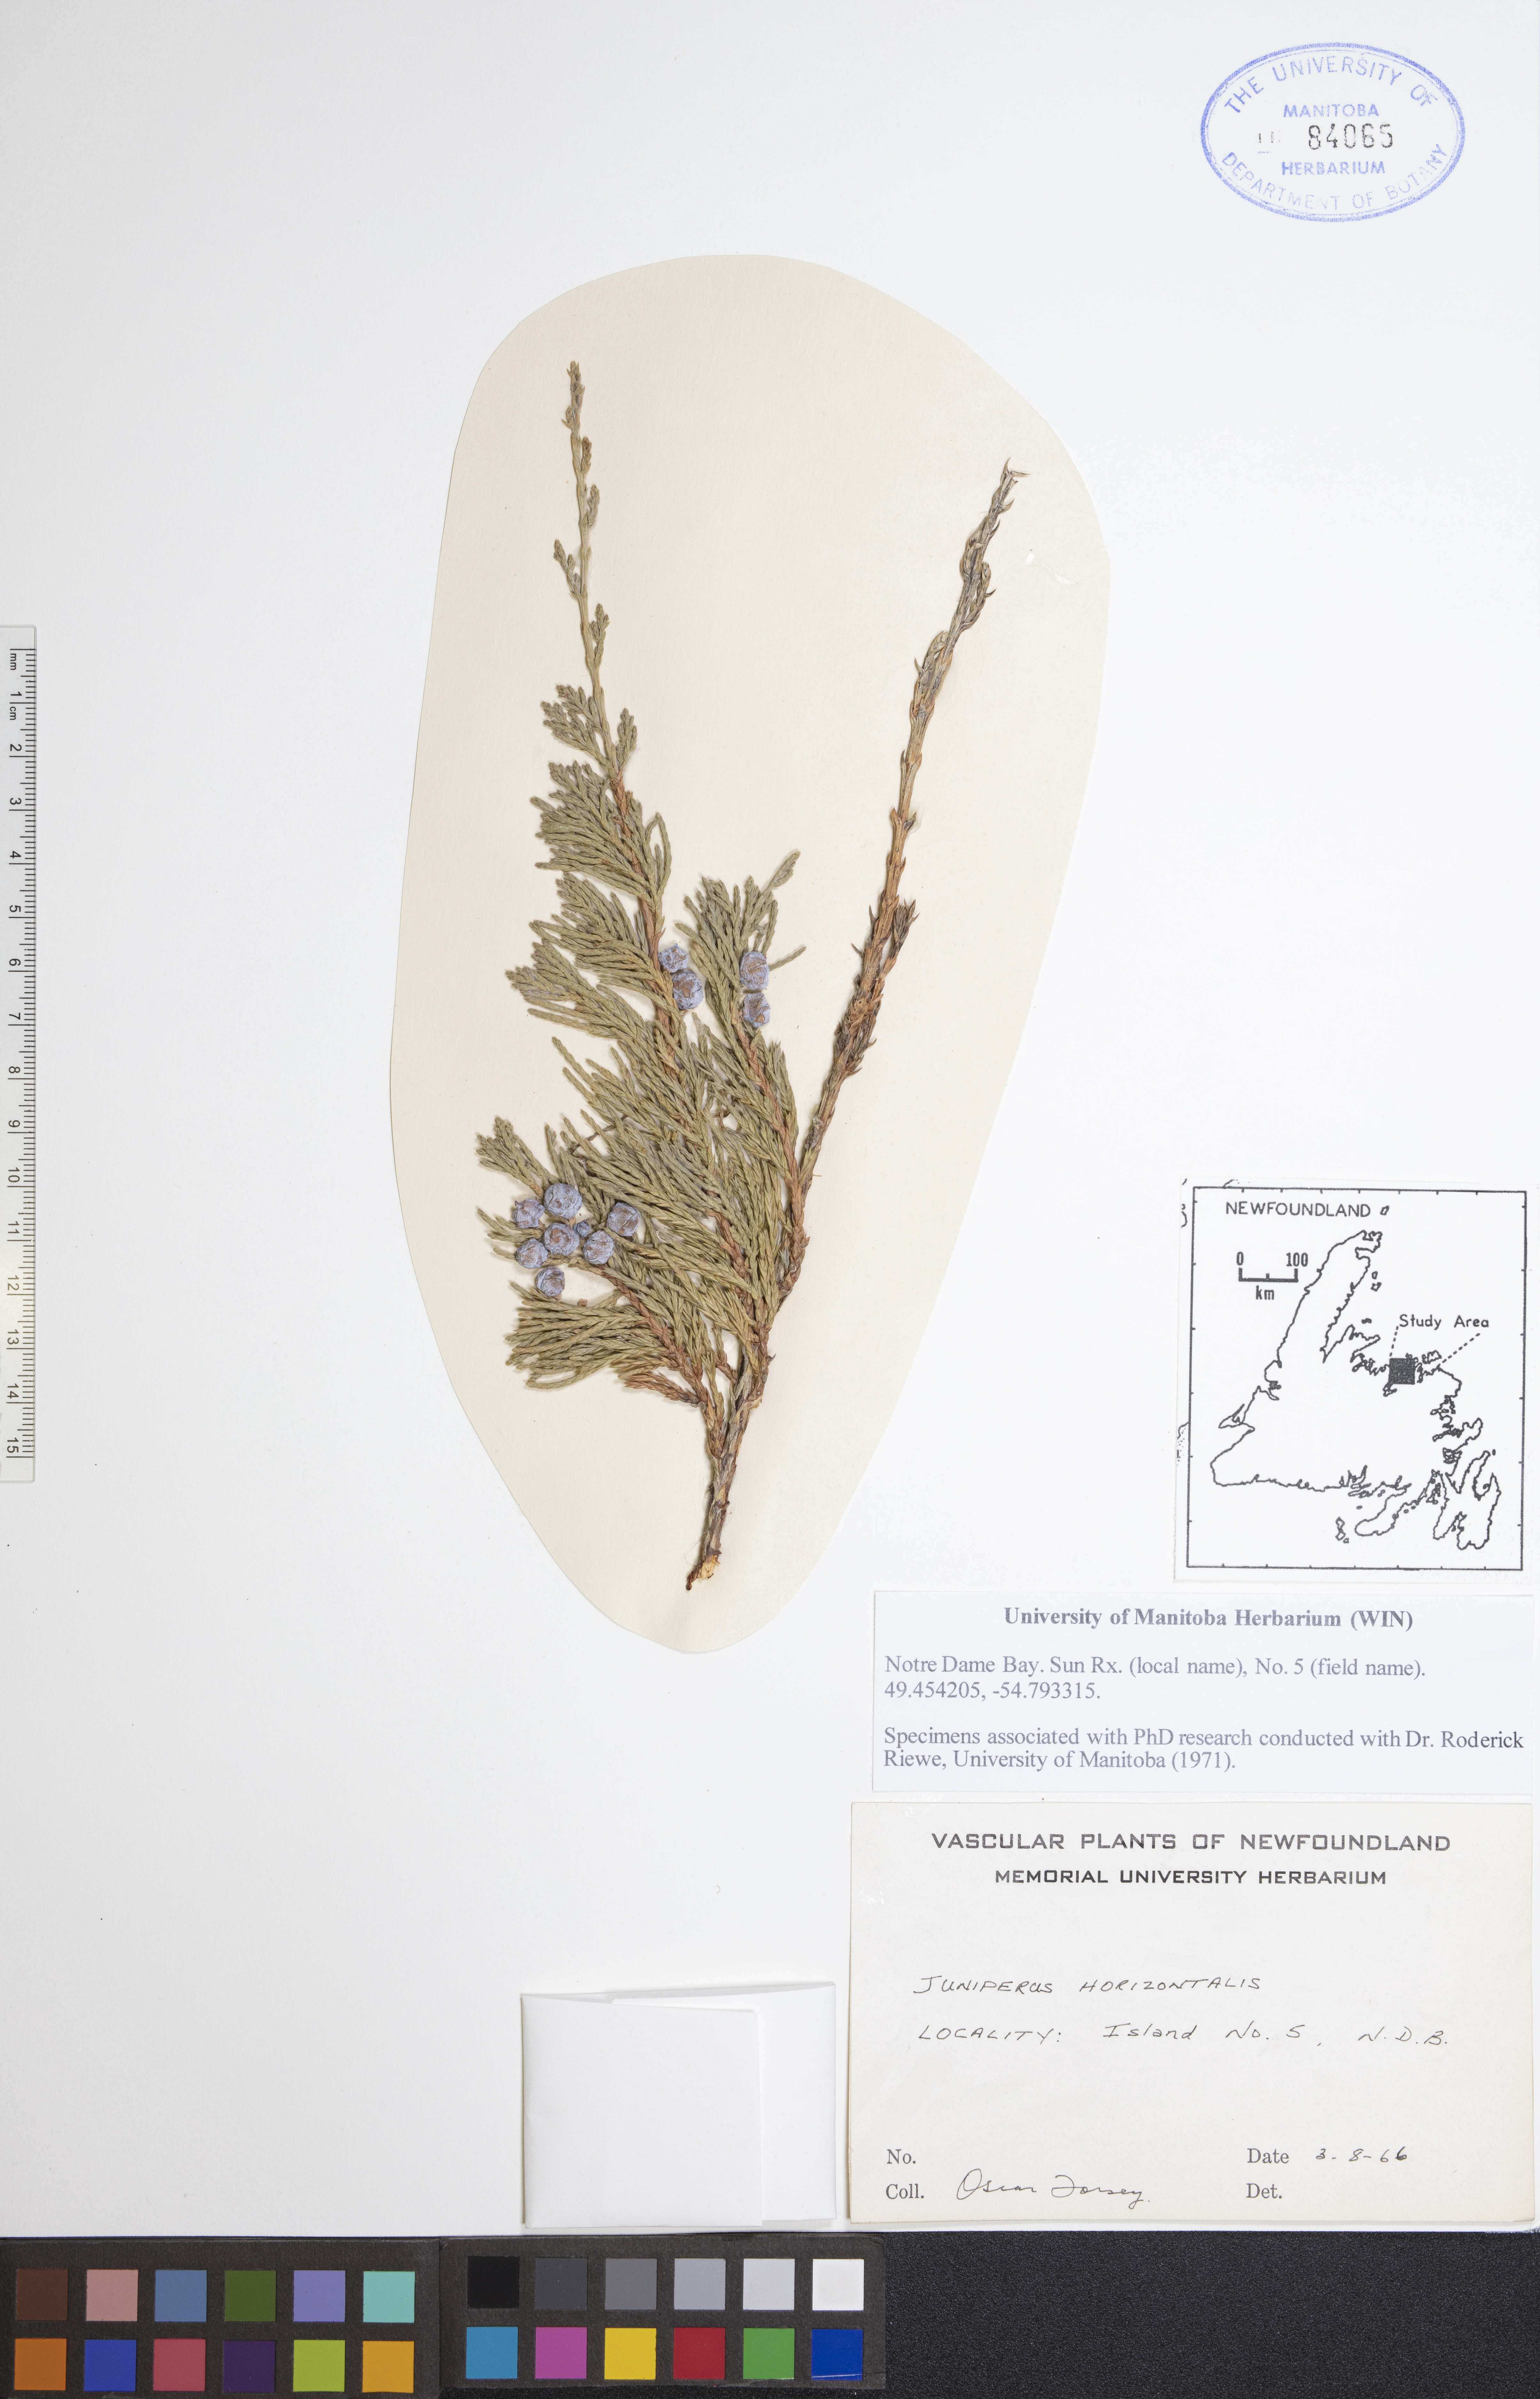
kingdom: Plantae
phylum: Tracheophyta
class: Pinopsida
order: Pinales
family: Cupressaceae
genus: Juniperus
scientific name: Juniperus horizontalis
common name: Creeping juniper
